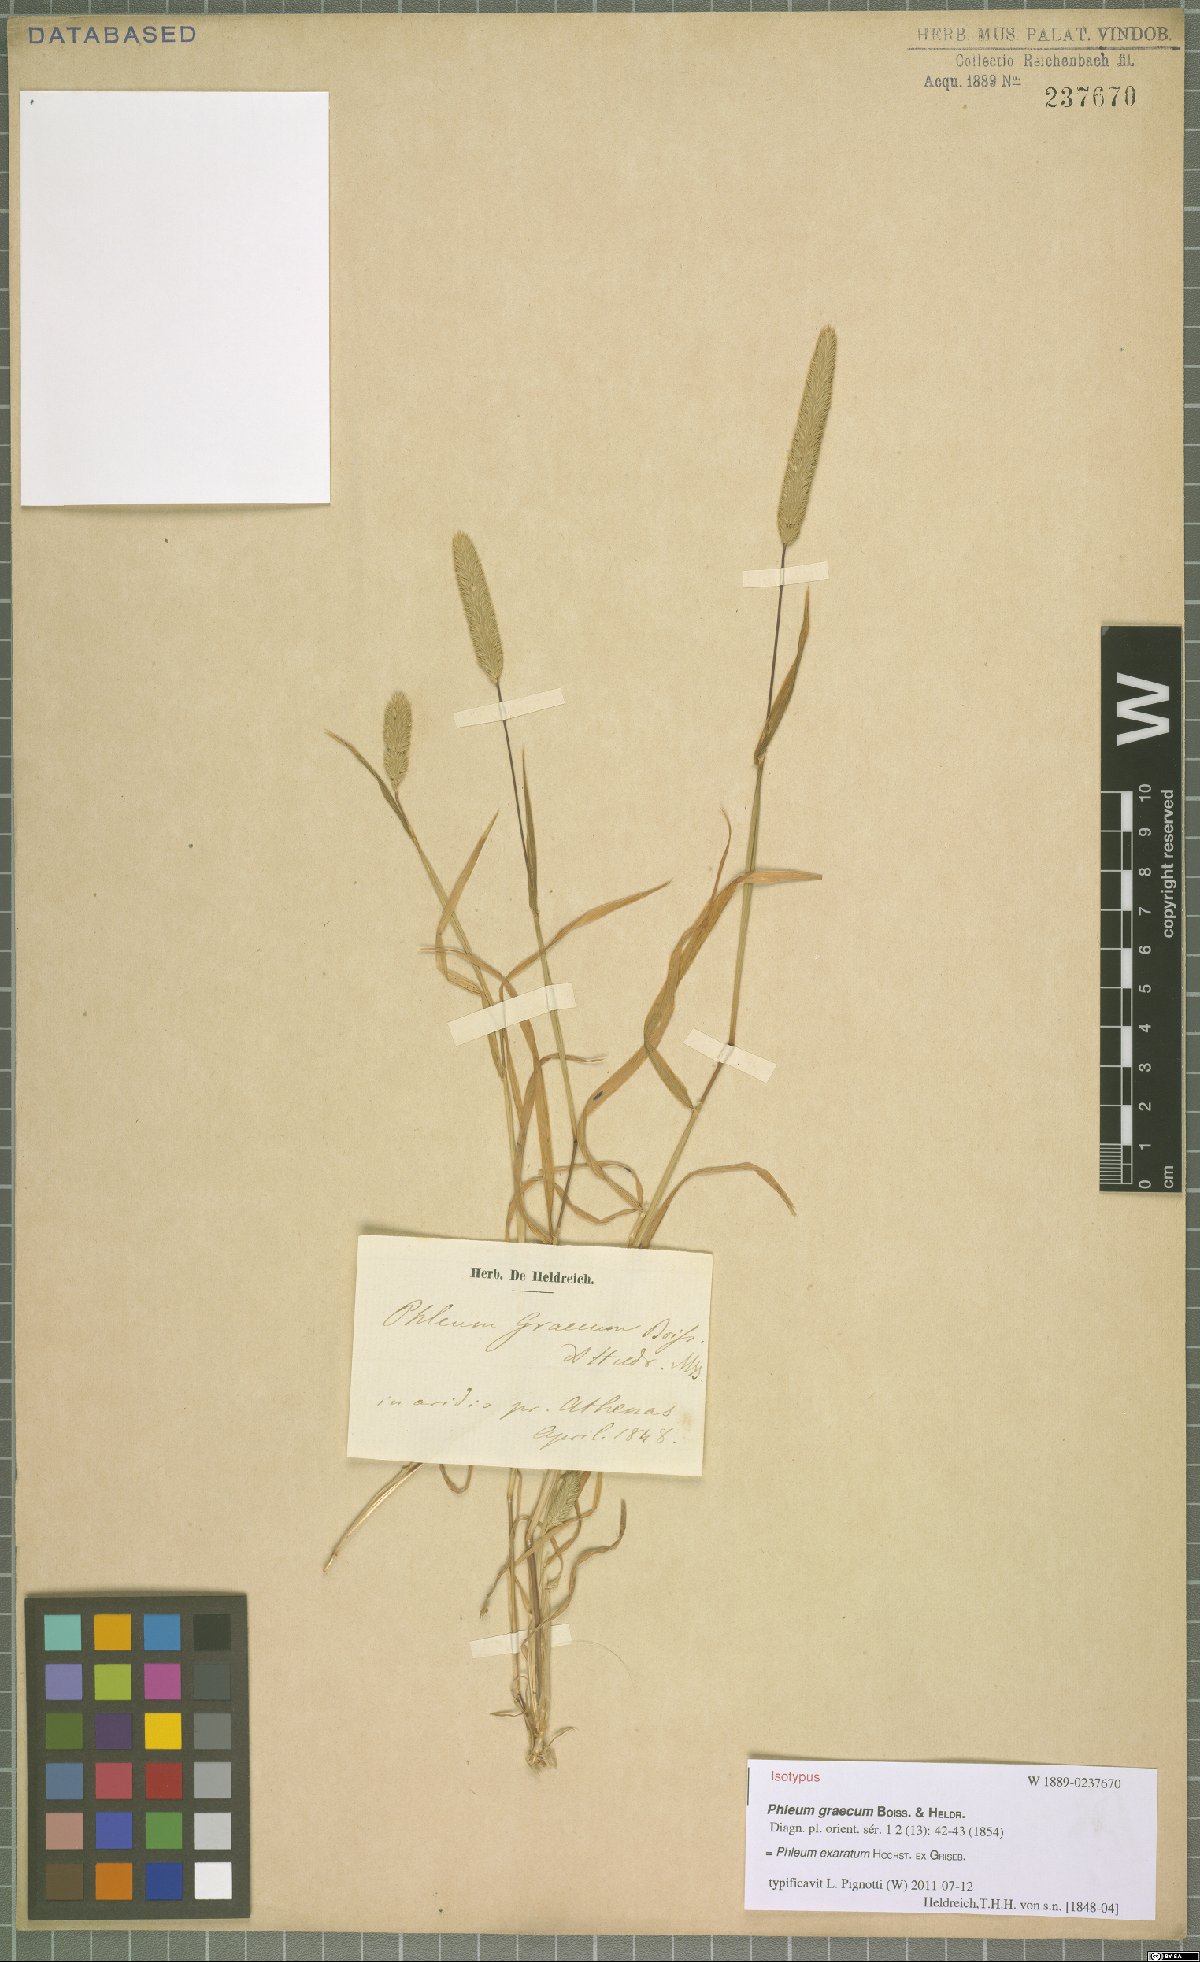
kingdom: Plantae
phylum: Tracheophyta
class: Liliopsida
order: Poales
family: Poaceae
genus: Phleum
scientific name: Phleum exaratum
